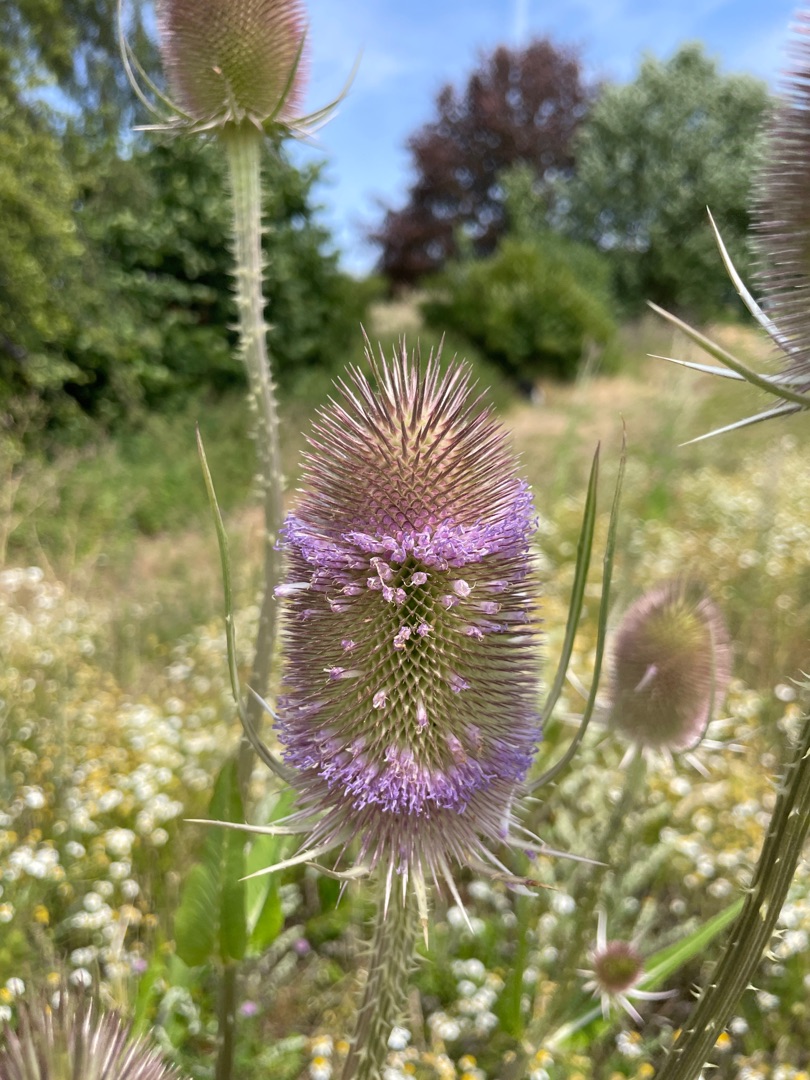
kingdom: Plantae
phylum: Tracheophyta
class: Magnoliopsida
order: Dipsacales
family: Caprifoliaceae
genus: Dipsacus
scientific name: Dipsacus fullonum
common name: Gærde-kartebolle
